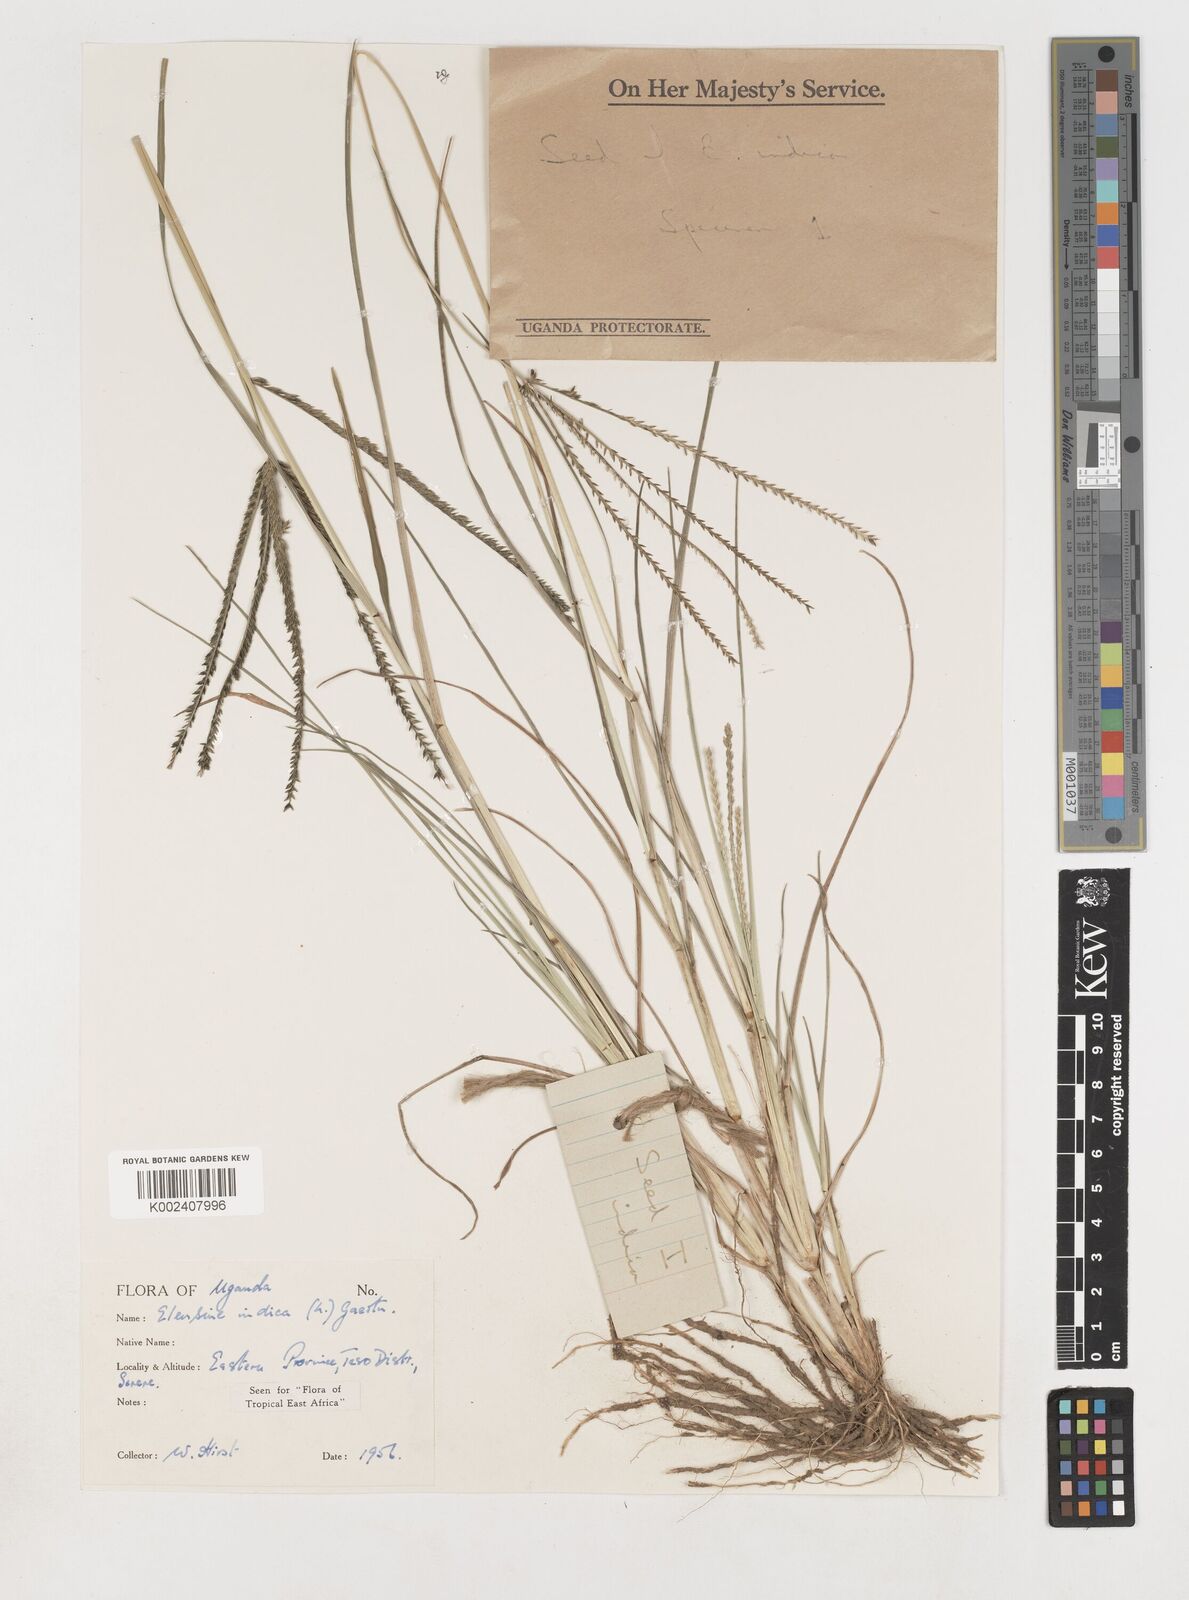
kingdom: Plantae
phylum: Tracheophyta
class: Liliopsida
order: Poales
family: Poaceae
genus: Eleusine
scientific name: Eleusine indica
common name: Yard-grass
